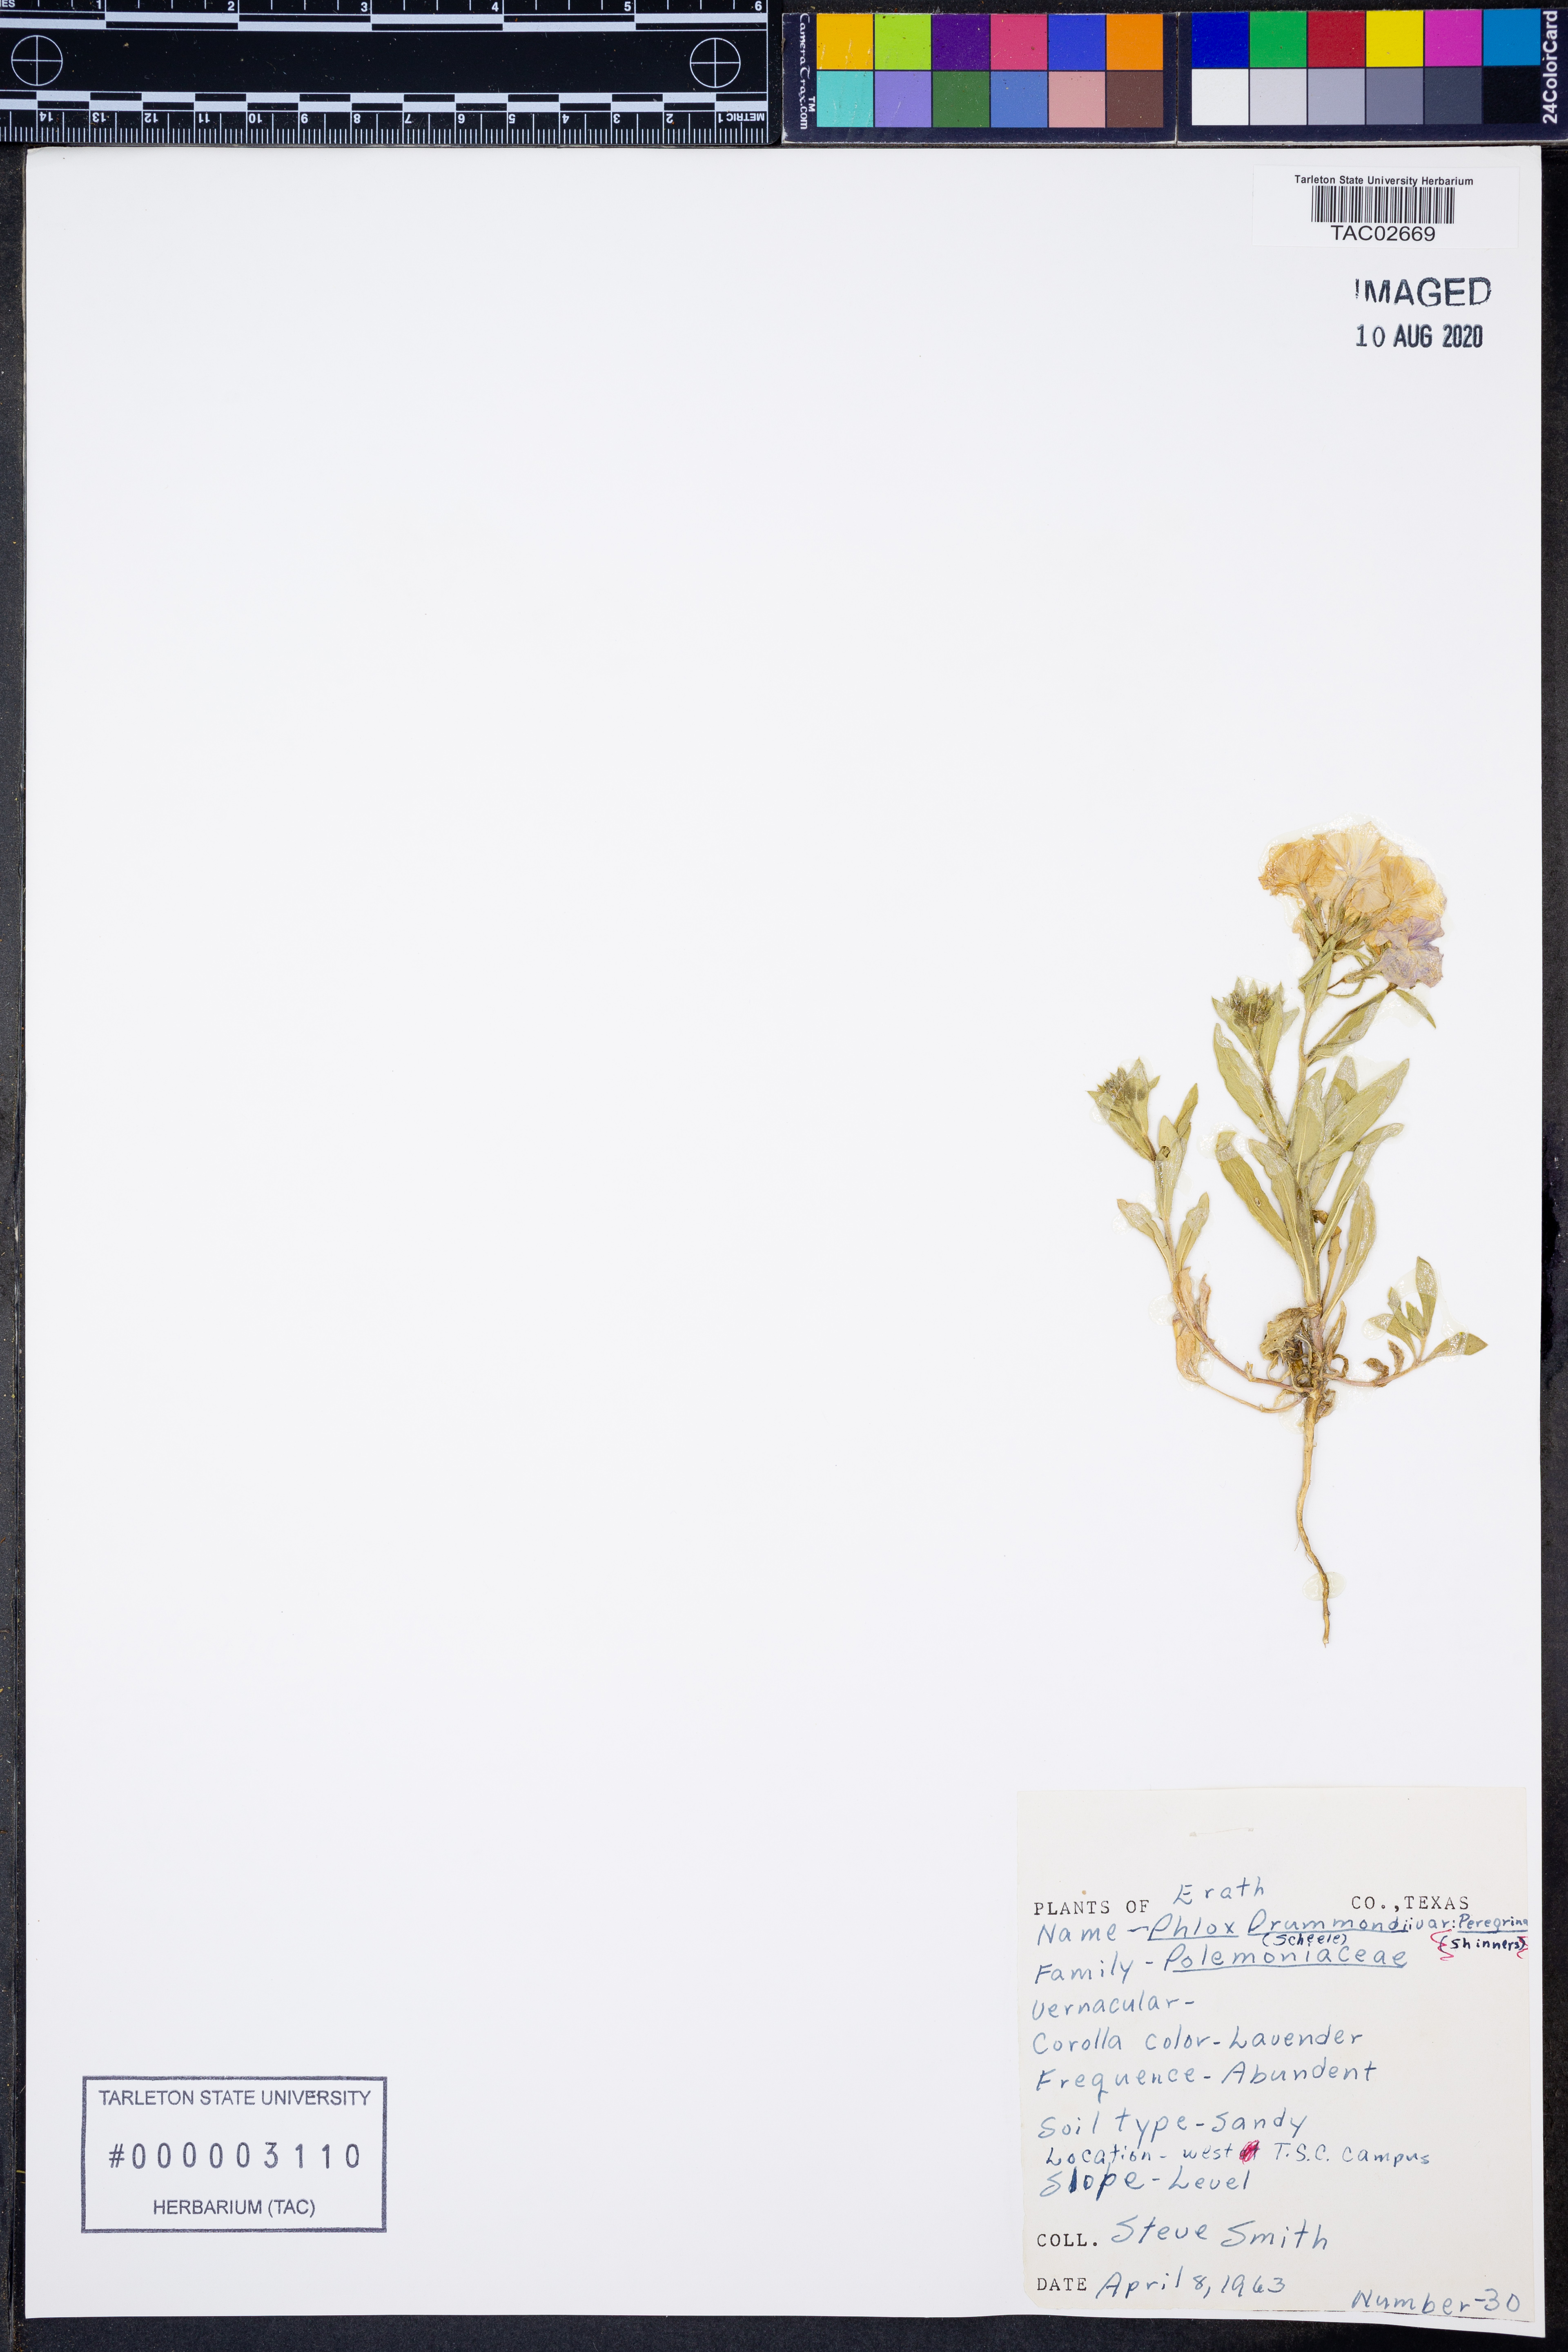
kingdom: Plantae
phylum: Tracheophyta
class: Magnoliopsida
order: Ericales
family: Polemoniaceae
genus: Phlox
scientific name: Phlox drummondii
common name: Drummond's phlox
